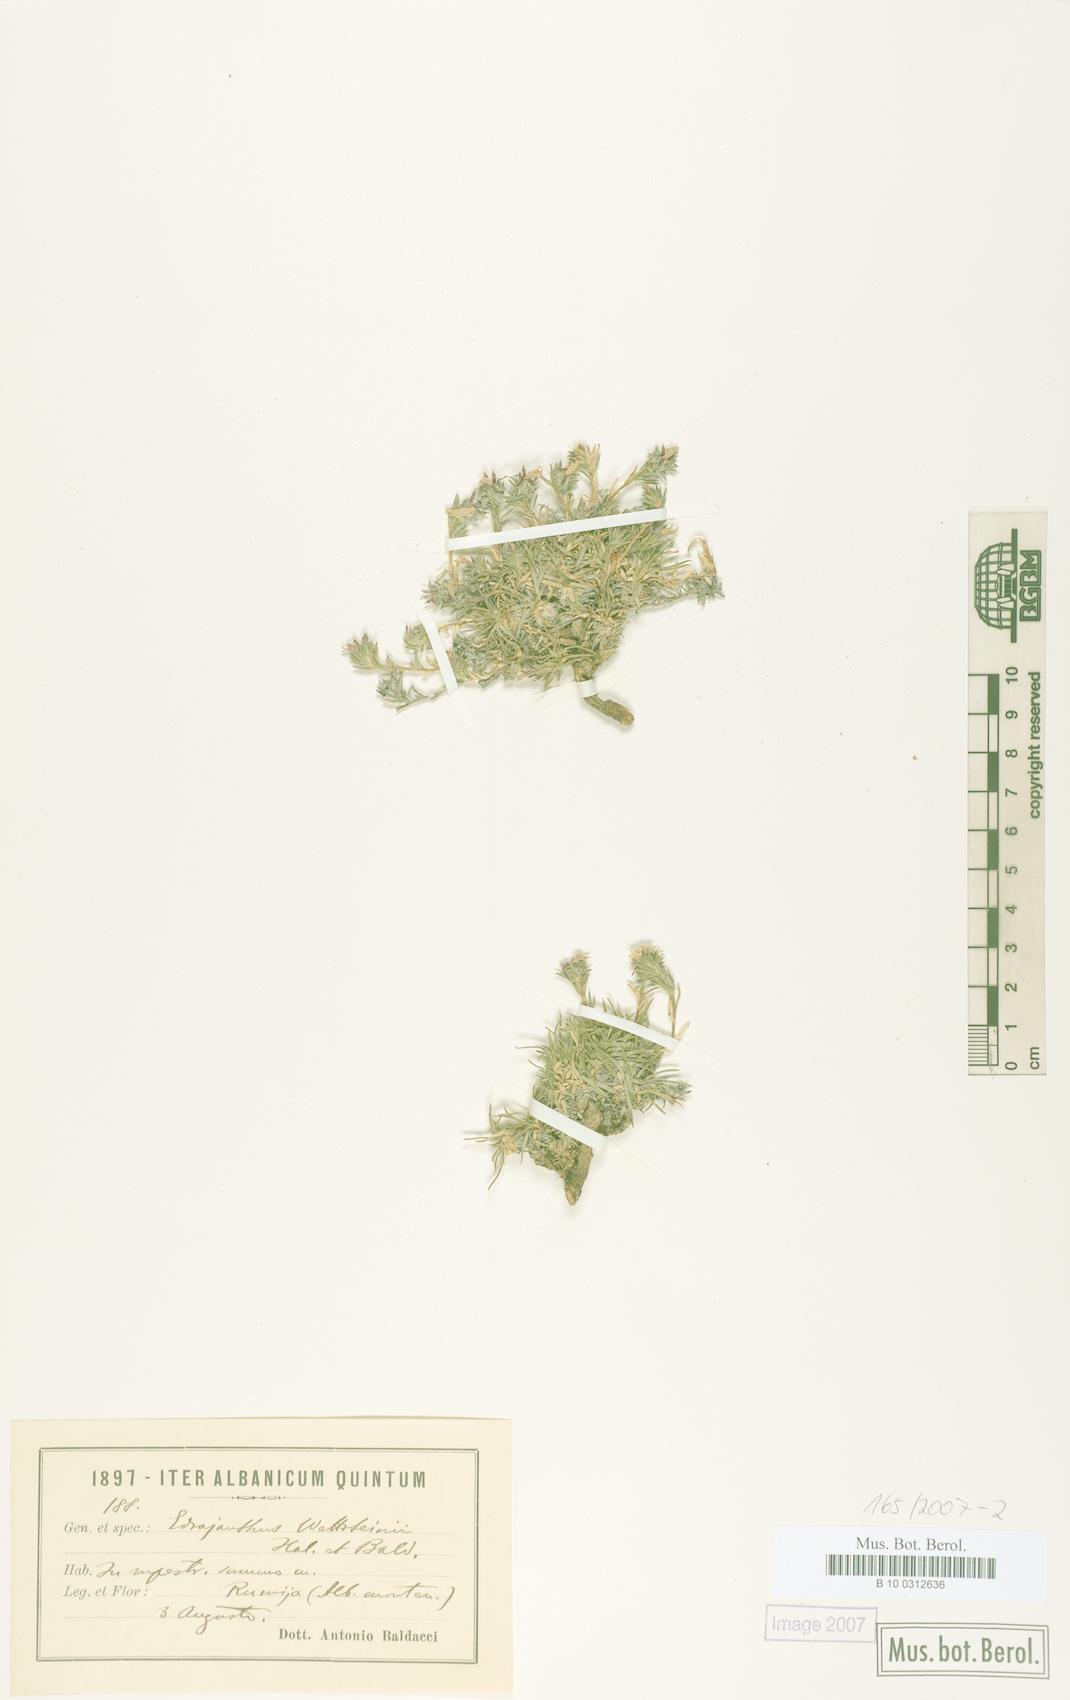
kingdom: Plantae
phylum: Tracheophyta
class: Magnoliopsida
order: Asterales
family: Campanulaceae
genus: Edraianthus
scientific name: Edraianthus wettsteinii
